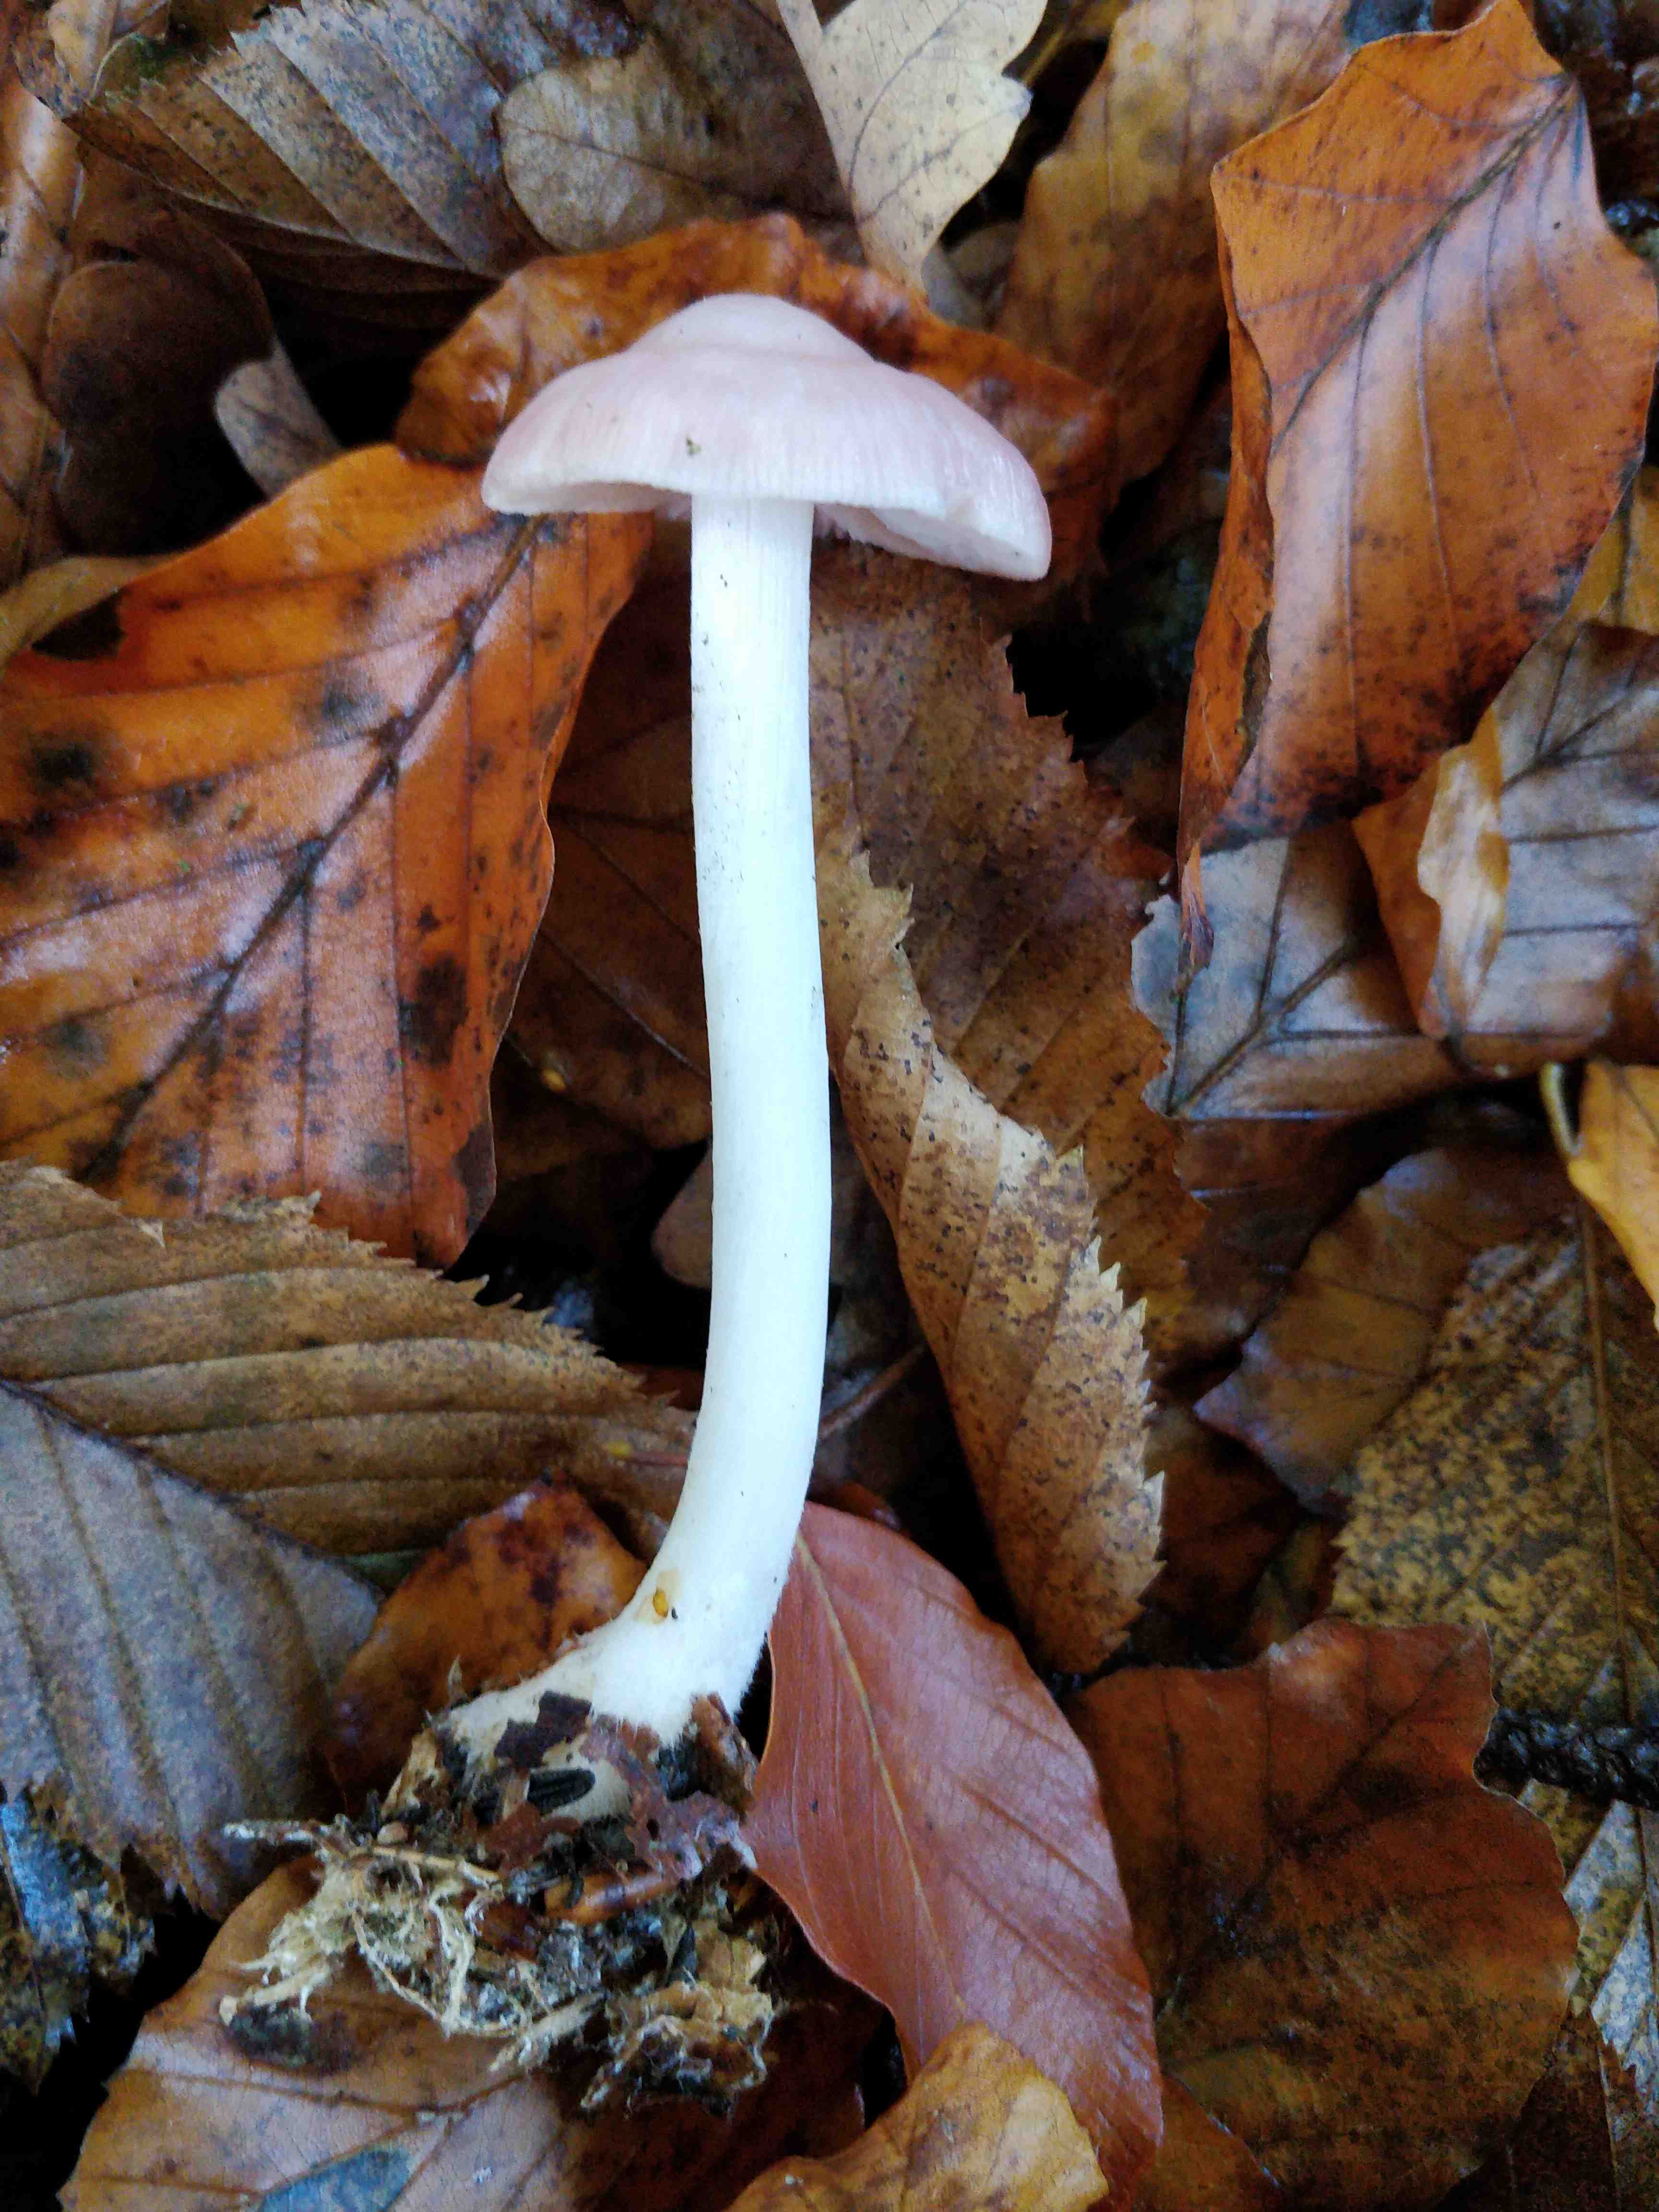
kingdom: Fungi
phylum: Basidiomycota
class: Agaricomycetes
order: Agaricales
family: Mycenaceae
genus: Mycena
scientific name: Mycena rosea
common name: rosa huesvamp
